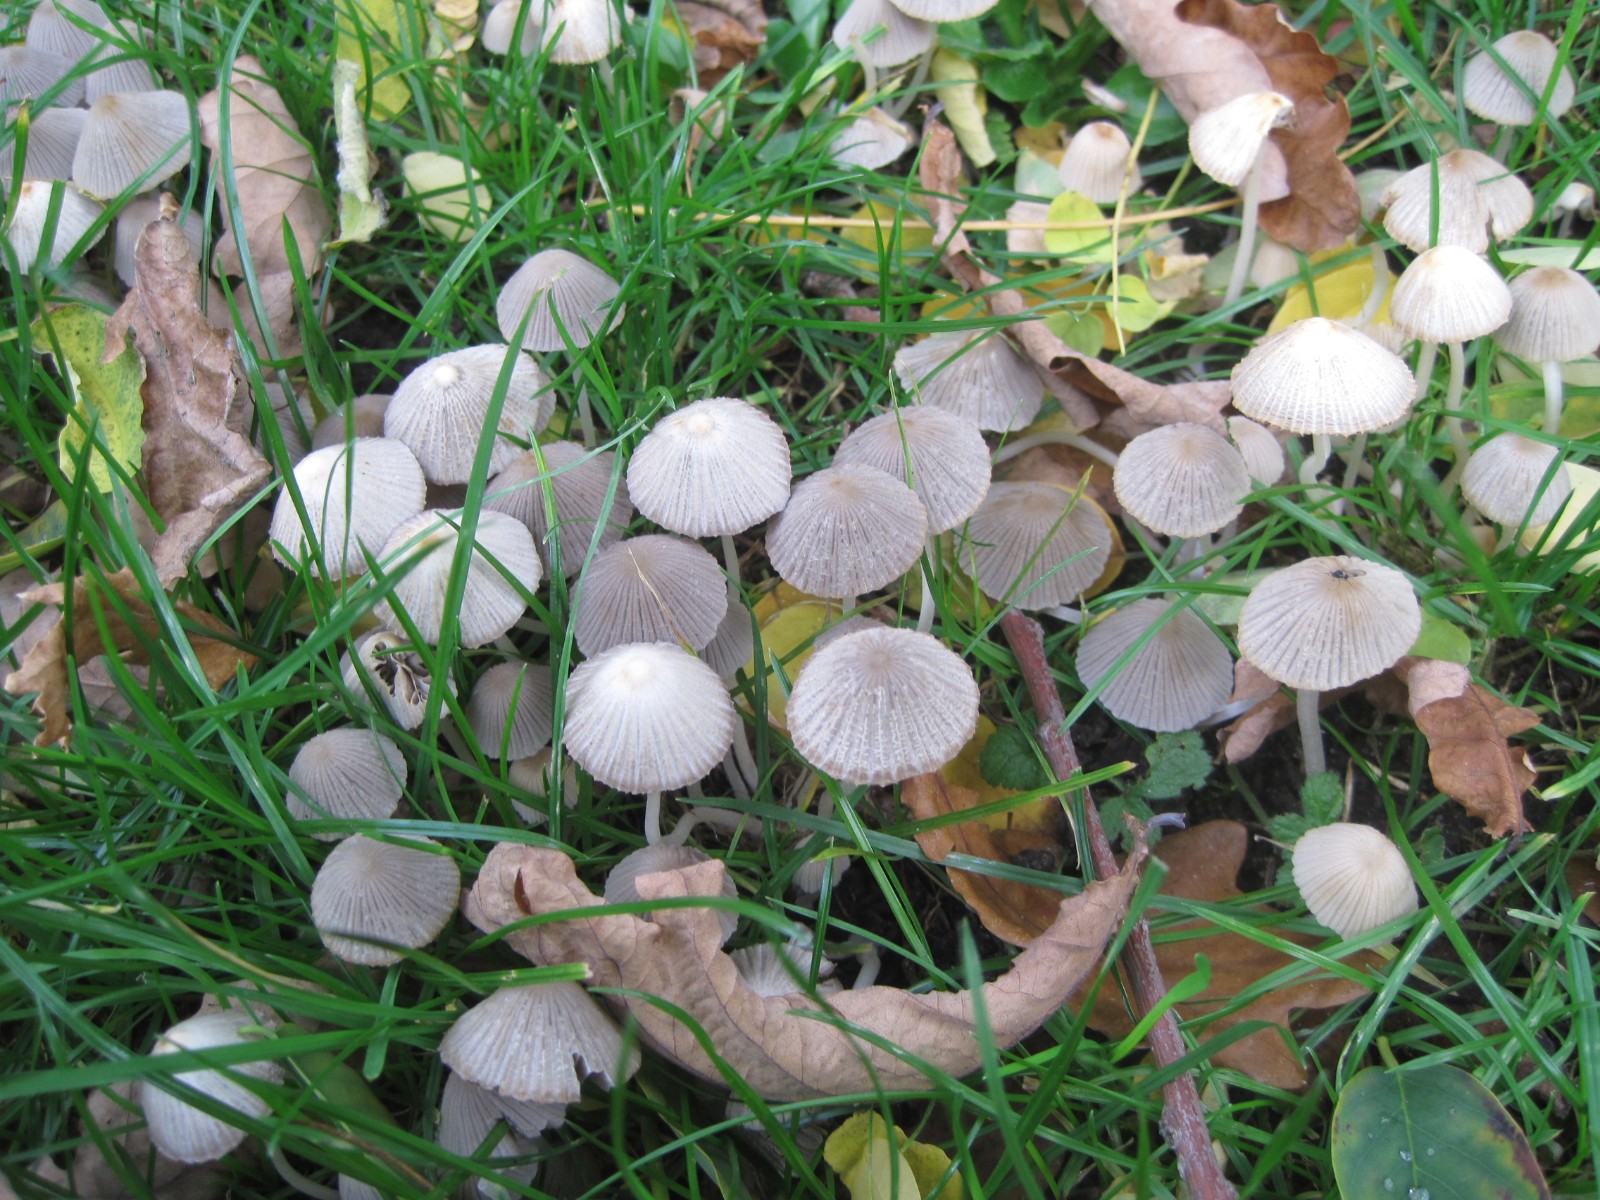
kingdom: Fungi
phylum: Basidiomycota
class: Agaricomycetes
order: Agaricales
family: Psathyrellaceae
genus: Coprinellus
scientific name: Coprinellus disseminatus
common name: bredsået blækhat
